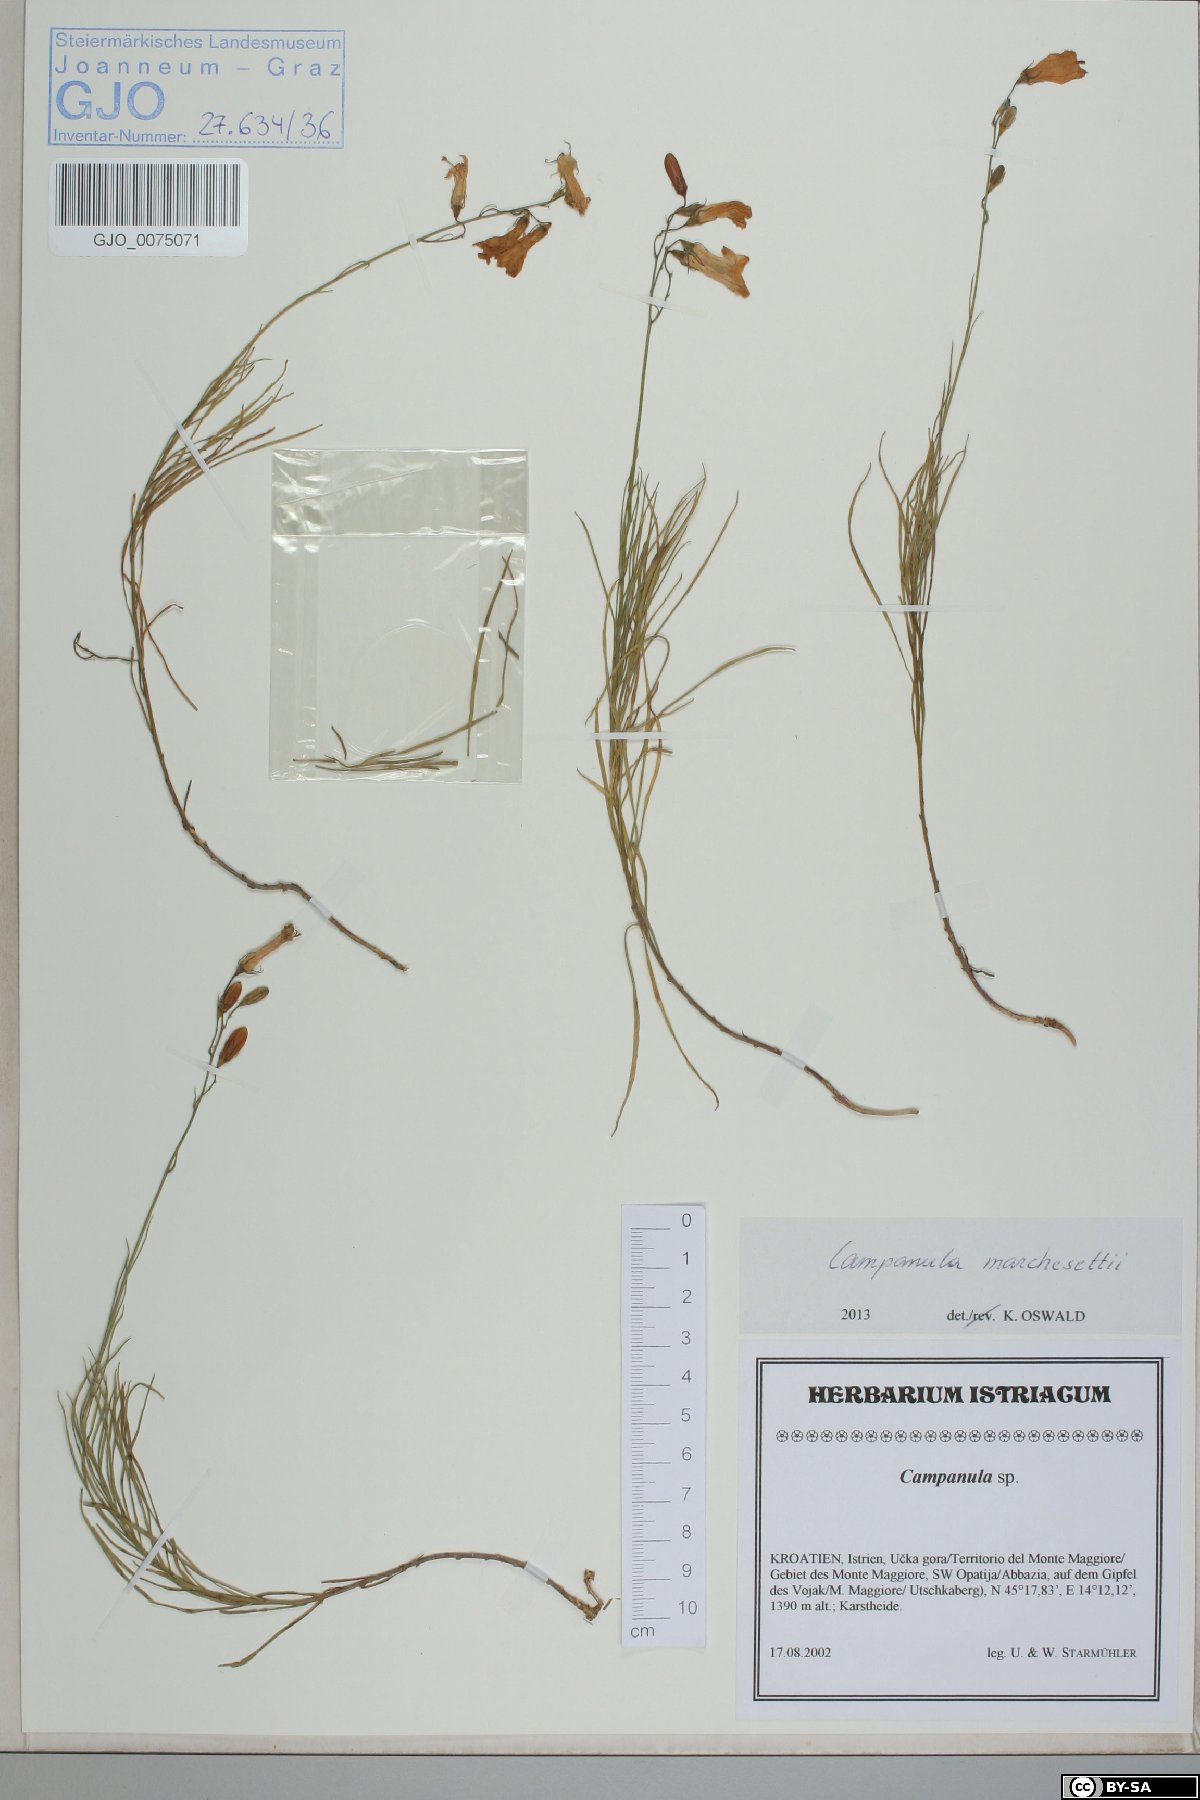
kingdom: Plantae
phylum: Tracheophyta
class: Magnoliopsida
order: Asterales
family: Campanulaceae
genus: Campanula
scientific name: Campanula marchesettii
